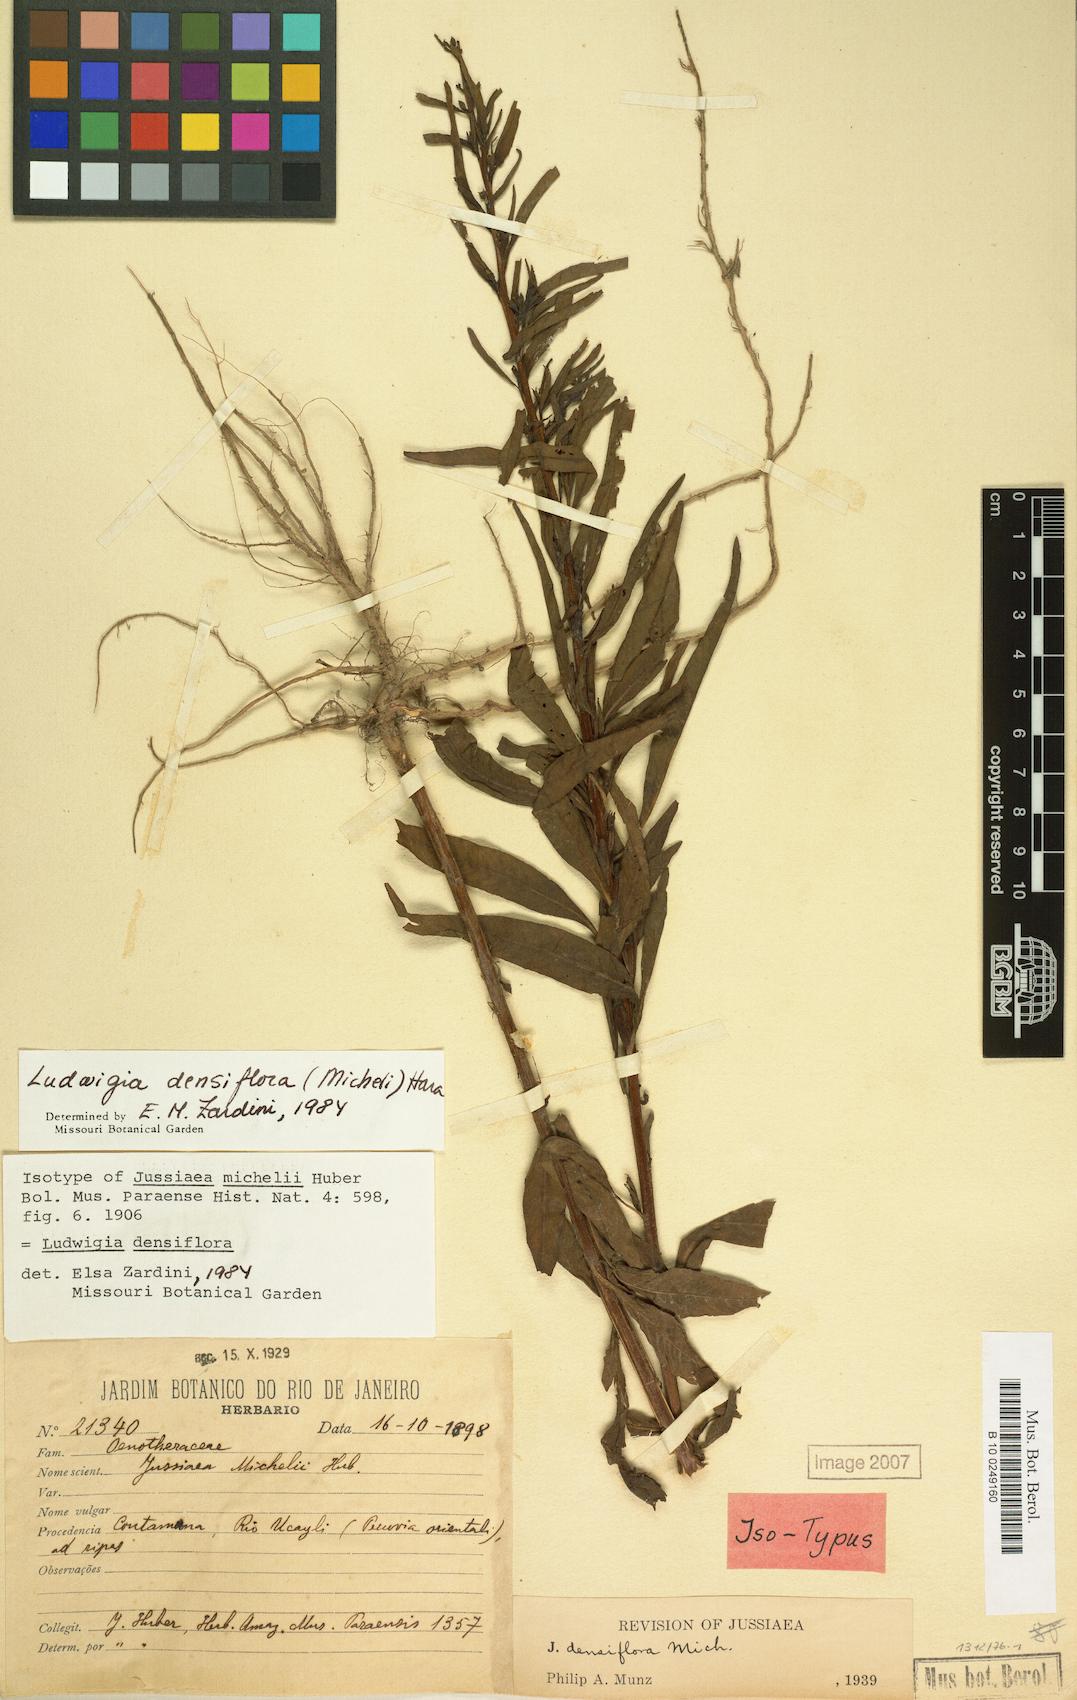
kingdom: Plantae
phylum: Tracheophyta
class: Magnoliopsida
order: Myrtales
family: Onagraceae
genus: Ludwigia
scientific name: Ludwigia densiflora
